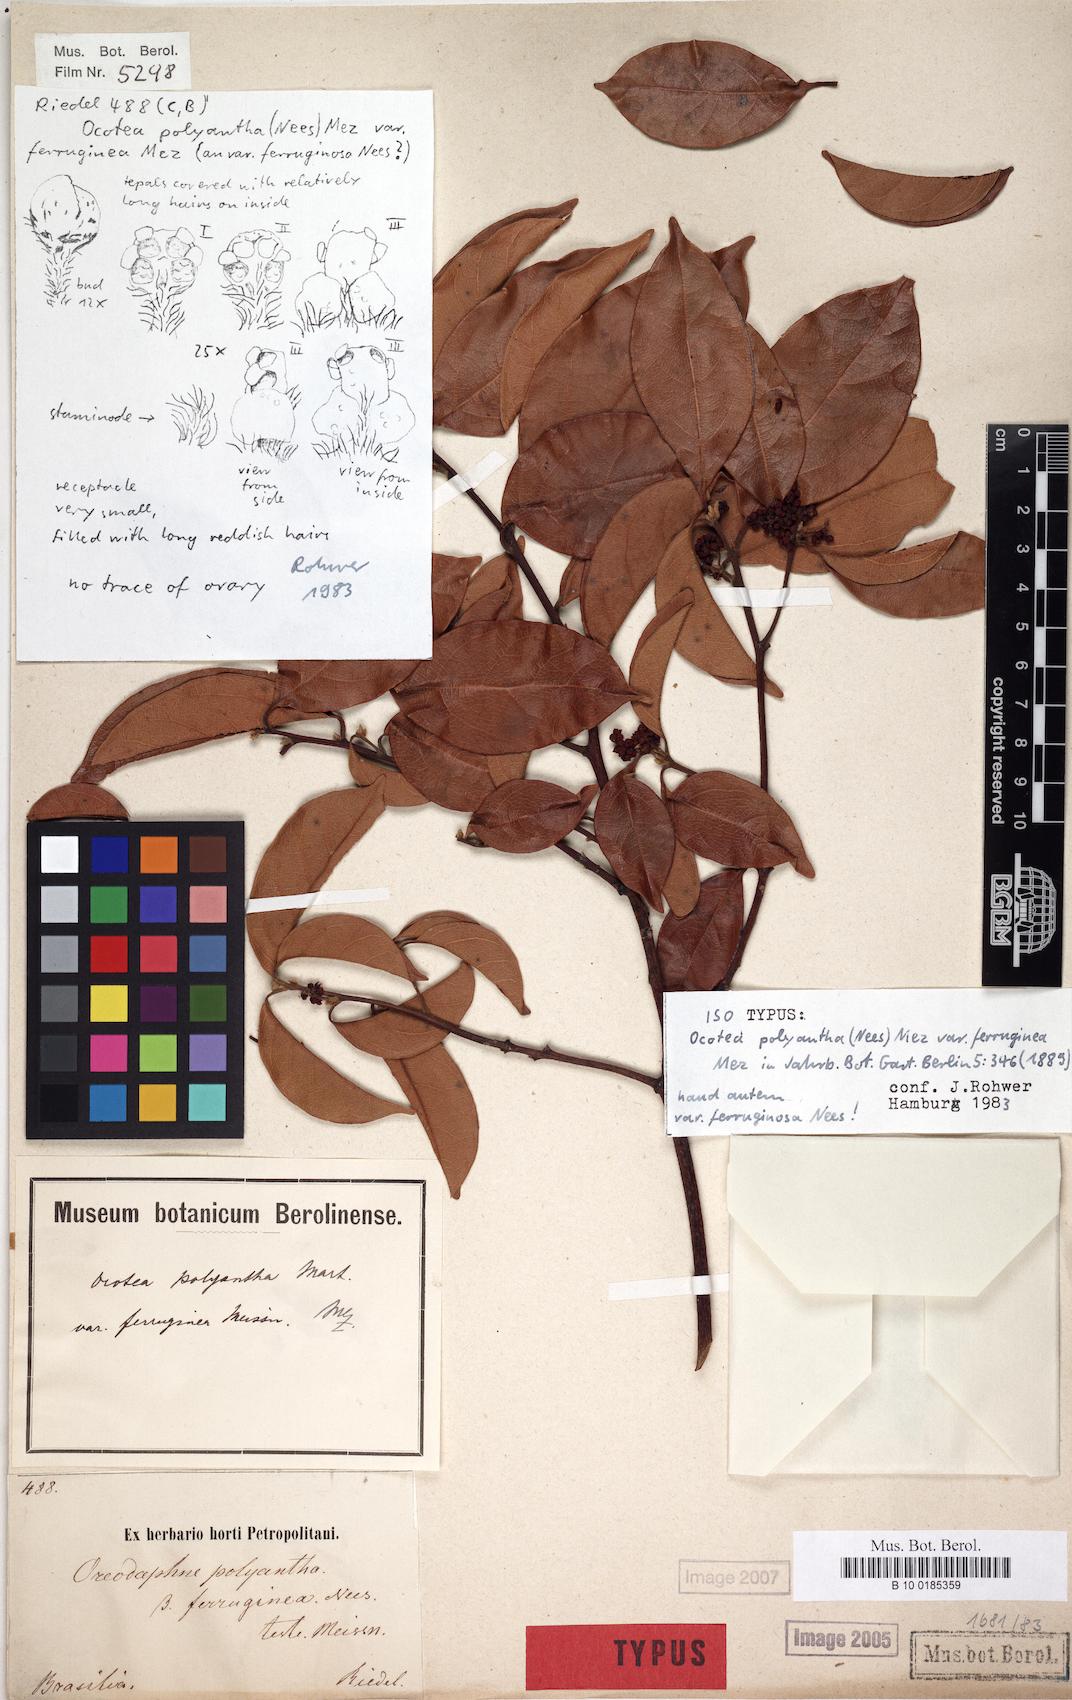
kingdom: Plantae
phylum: Tracheophyta
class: Magnoliopsida
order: Laurales
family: Lauraceae
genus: Ocotea
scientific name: Ocotea polyantha
